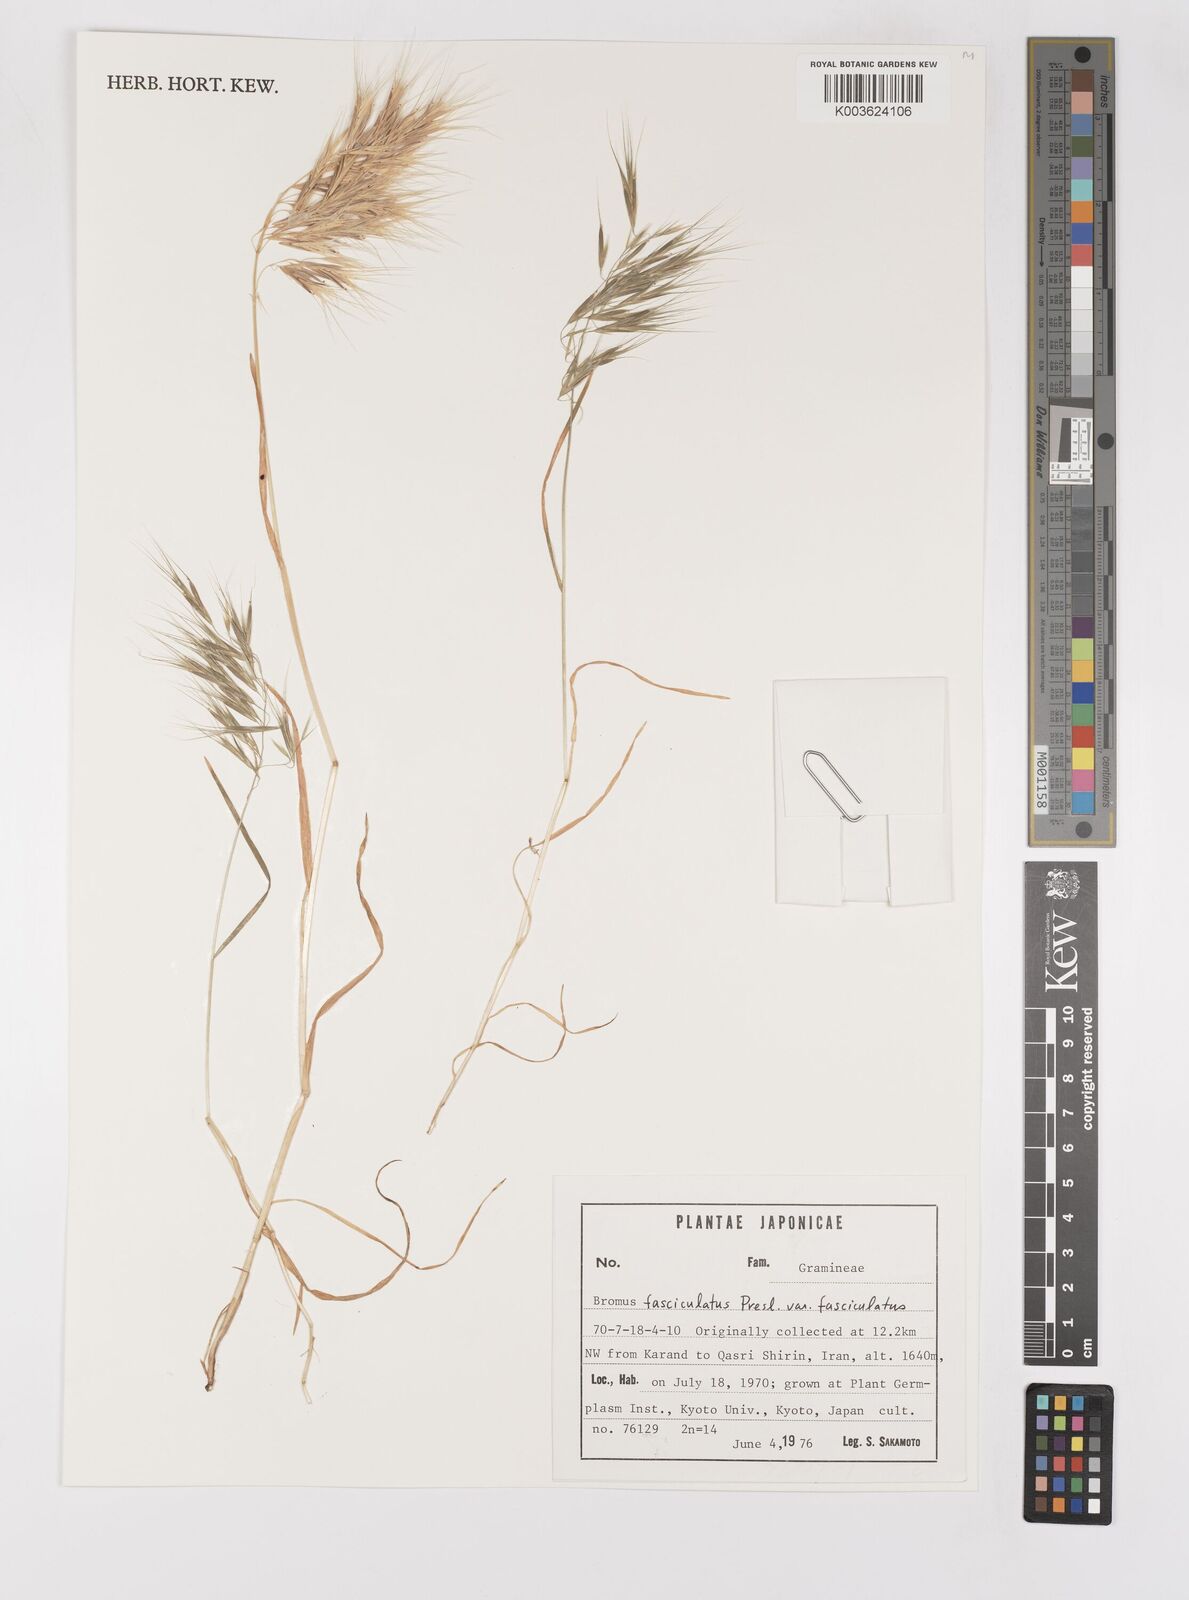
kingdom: Plantae
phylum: Tracheophyta
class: Liliopsida
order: Poales
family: Poaceae
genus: Bromus
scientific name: Bromus fasciculatus
